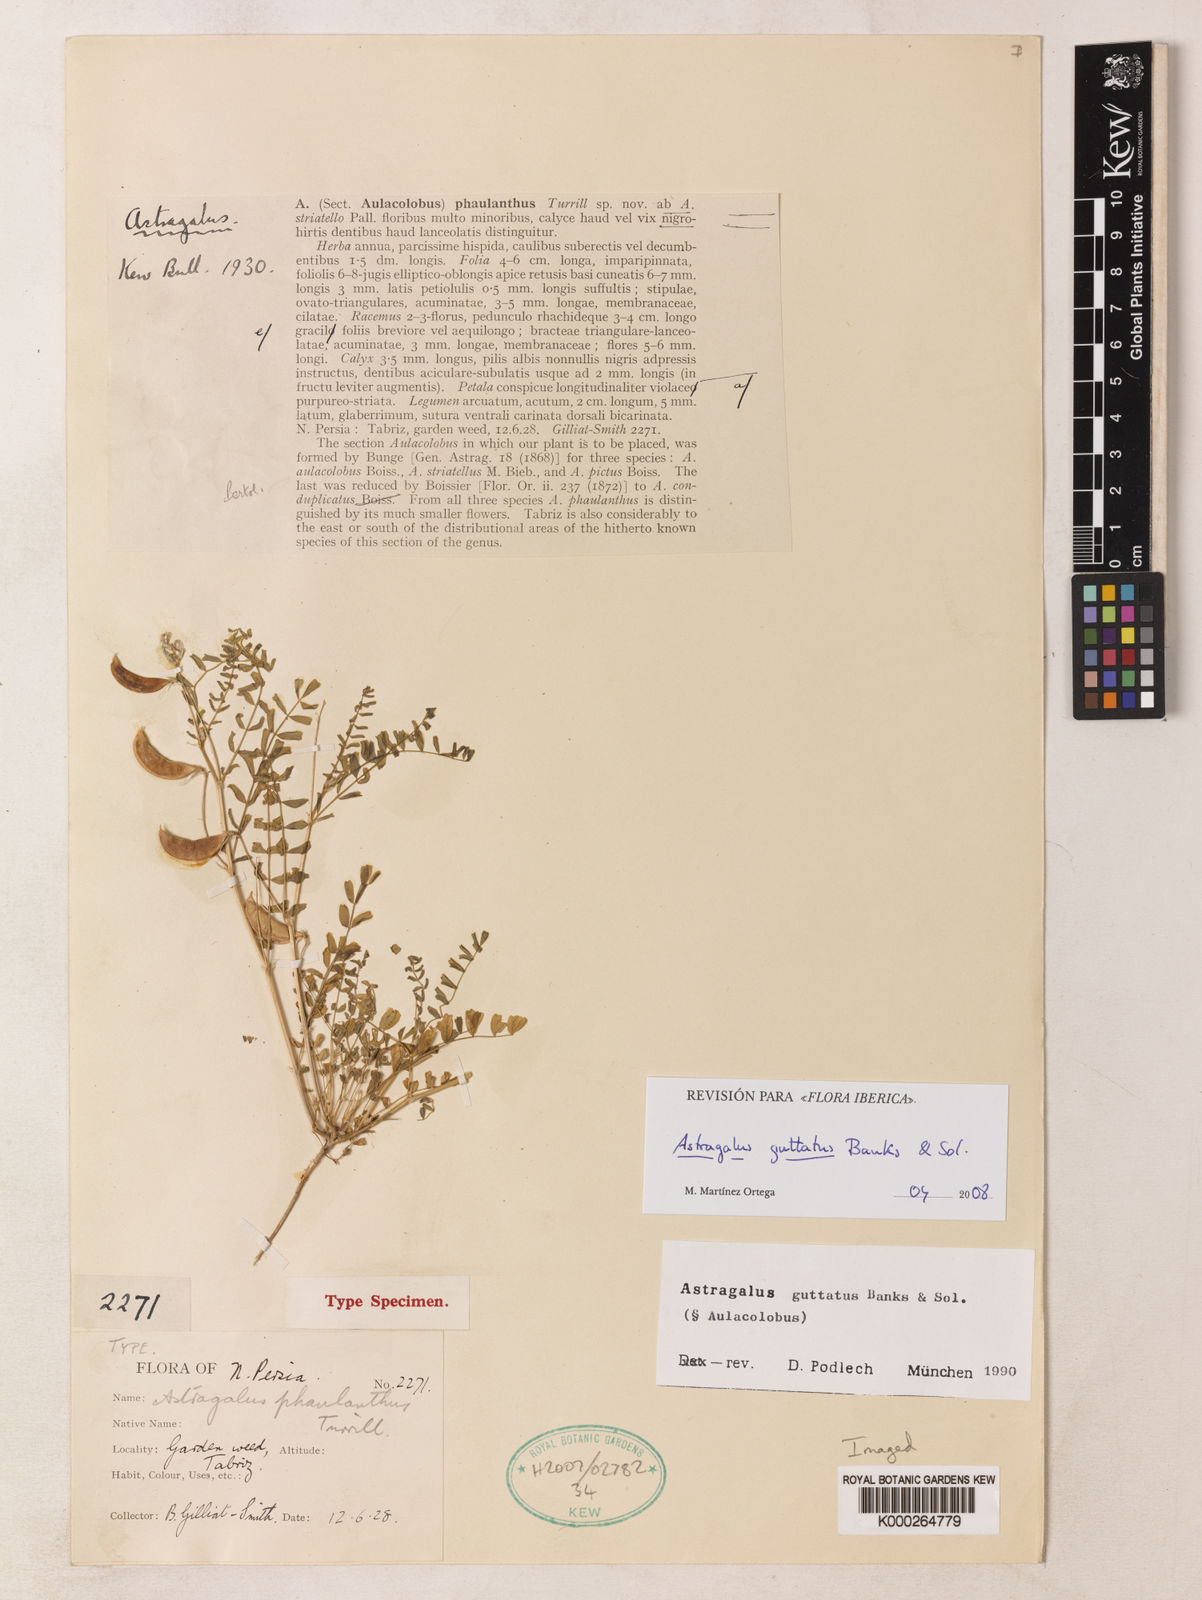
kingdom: Plantae
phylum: Tracheophyta
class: Magnoliopsida
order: Fabales
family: Fabaceae
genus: Astragalus
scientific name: Astragalus guttatus
